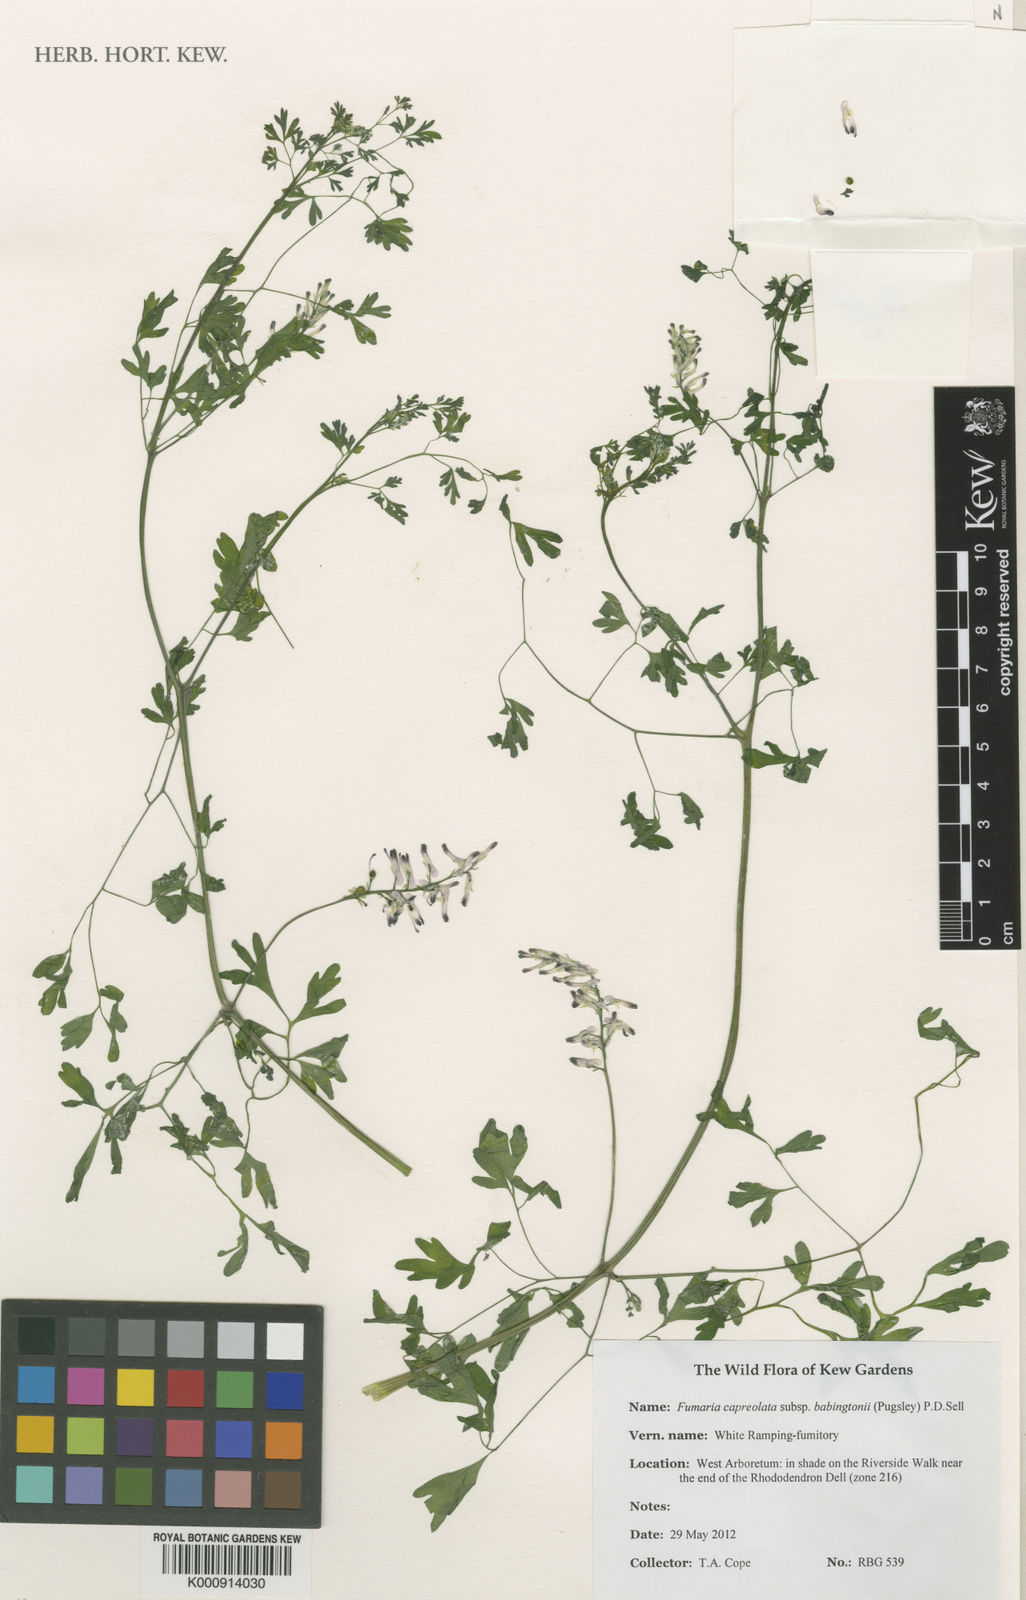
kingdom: Plantae
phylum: Tracheophyta
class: Magnoliopsida
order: Ranunculales
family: Papaveraceae
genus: Fumaria
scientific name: Fumaria capreolata
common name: White ramping-fumitory
